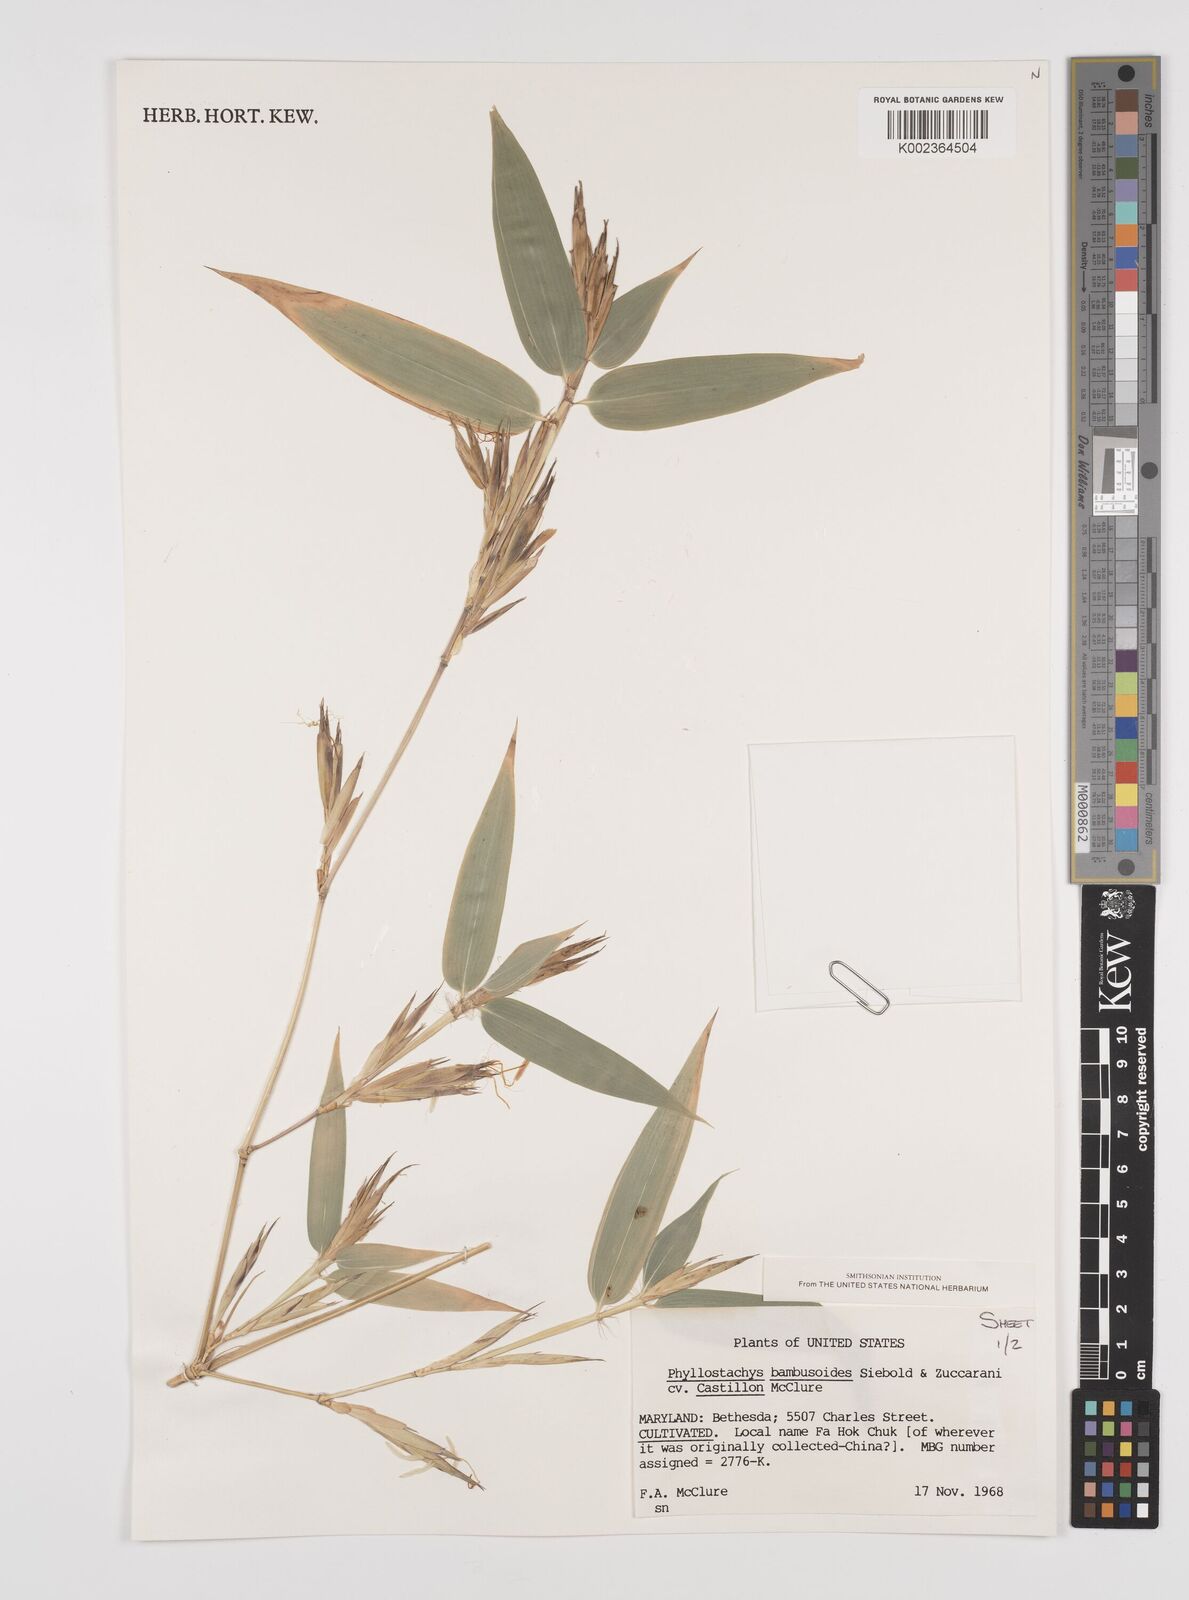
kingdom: Plantae
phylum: Tracheophyta
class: Liliopsida
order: Poales
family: Poaceae
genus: Phyllostachys
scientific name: Phyllostachys reticulata
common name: Bamboo
